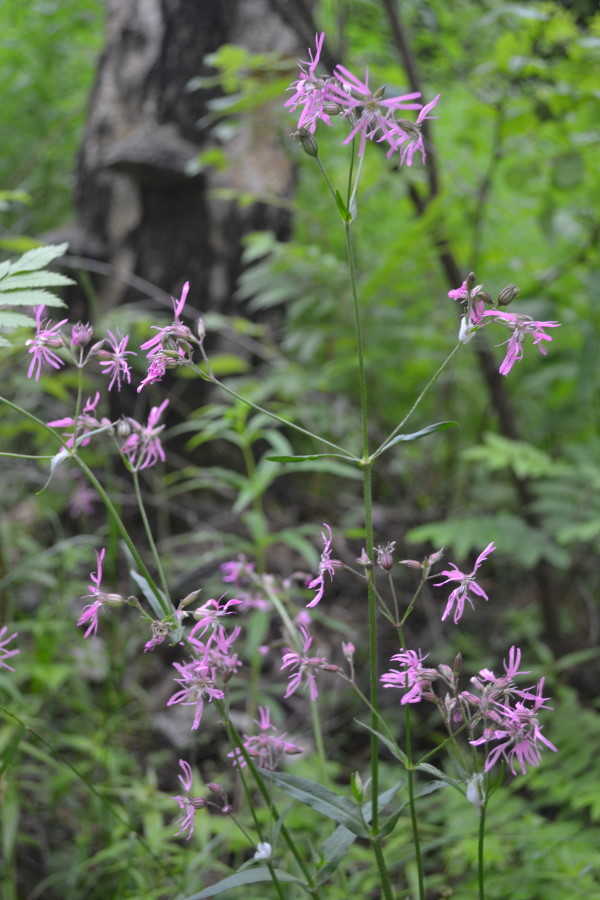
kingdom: Plantae
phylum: Tracheophyta
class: Magnoliopsida
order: Caryophyllales
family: Caryophyllaceae
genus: Silene
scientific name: Silene flos-cuculi
